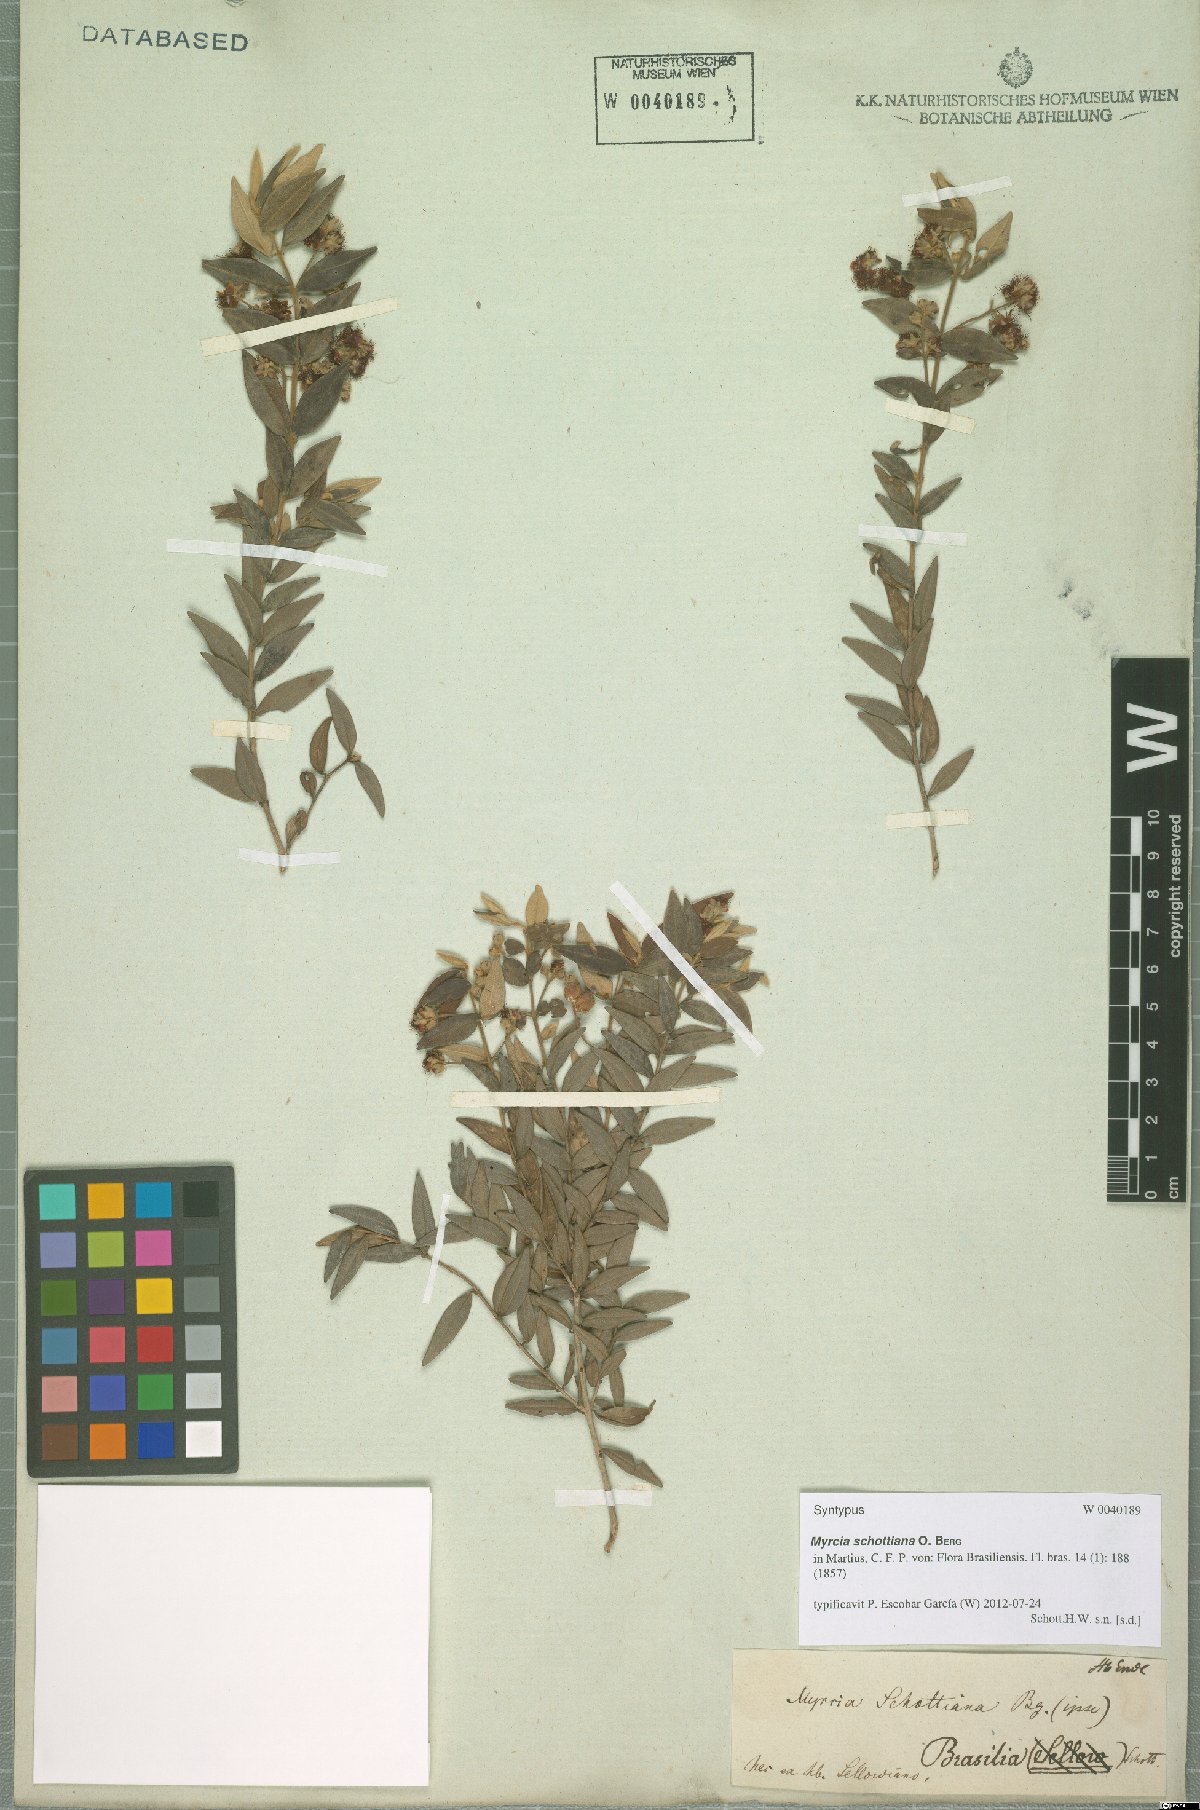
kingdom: Plantae
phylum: Tracheophyta
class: Magnoliopsida
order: Myrtales
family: Myrtaceae
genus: Myrcia
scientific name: Myrcia schottiana
